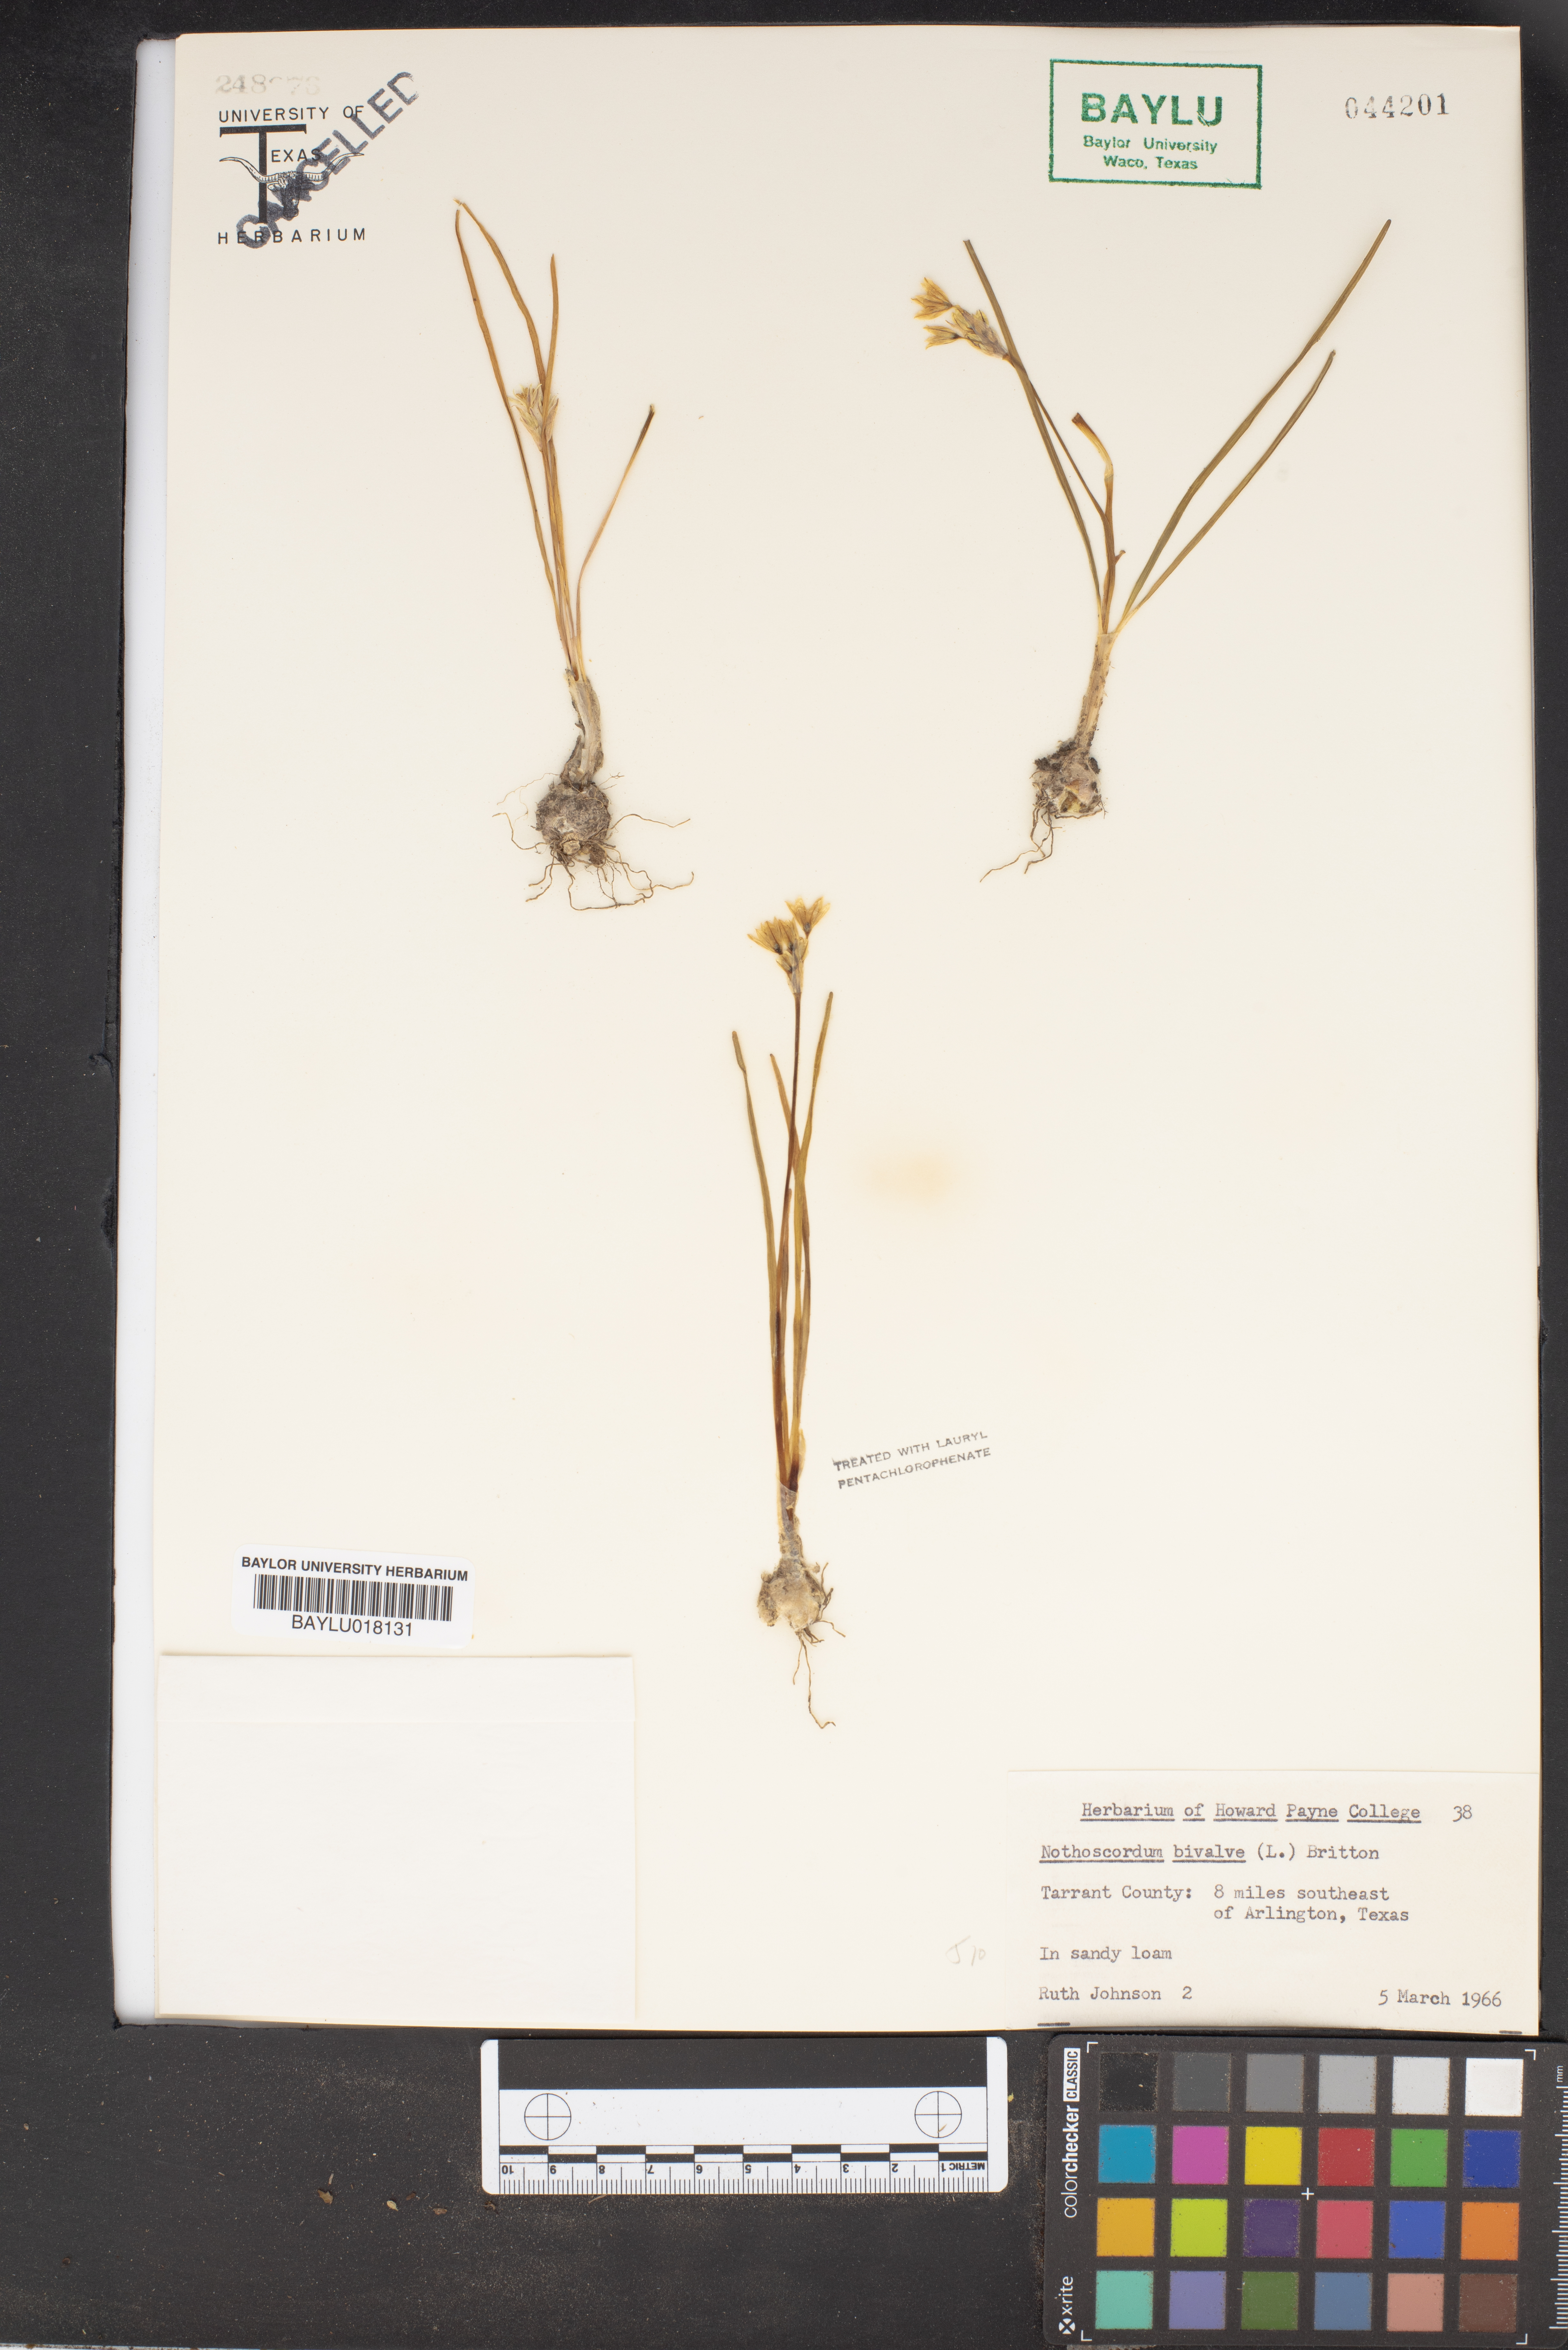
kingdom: Plantae
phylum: Tracheophyta
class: Liliopsida
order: Asparagales
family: Amaryllidaceae
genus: Nothoscordum
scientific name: Nothoscordum bivalve
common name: Crow-poison
